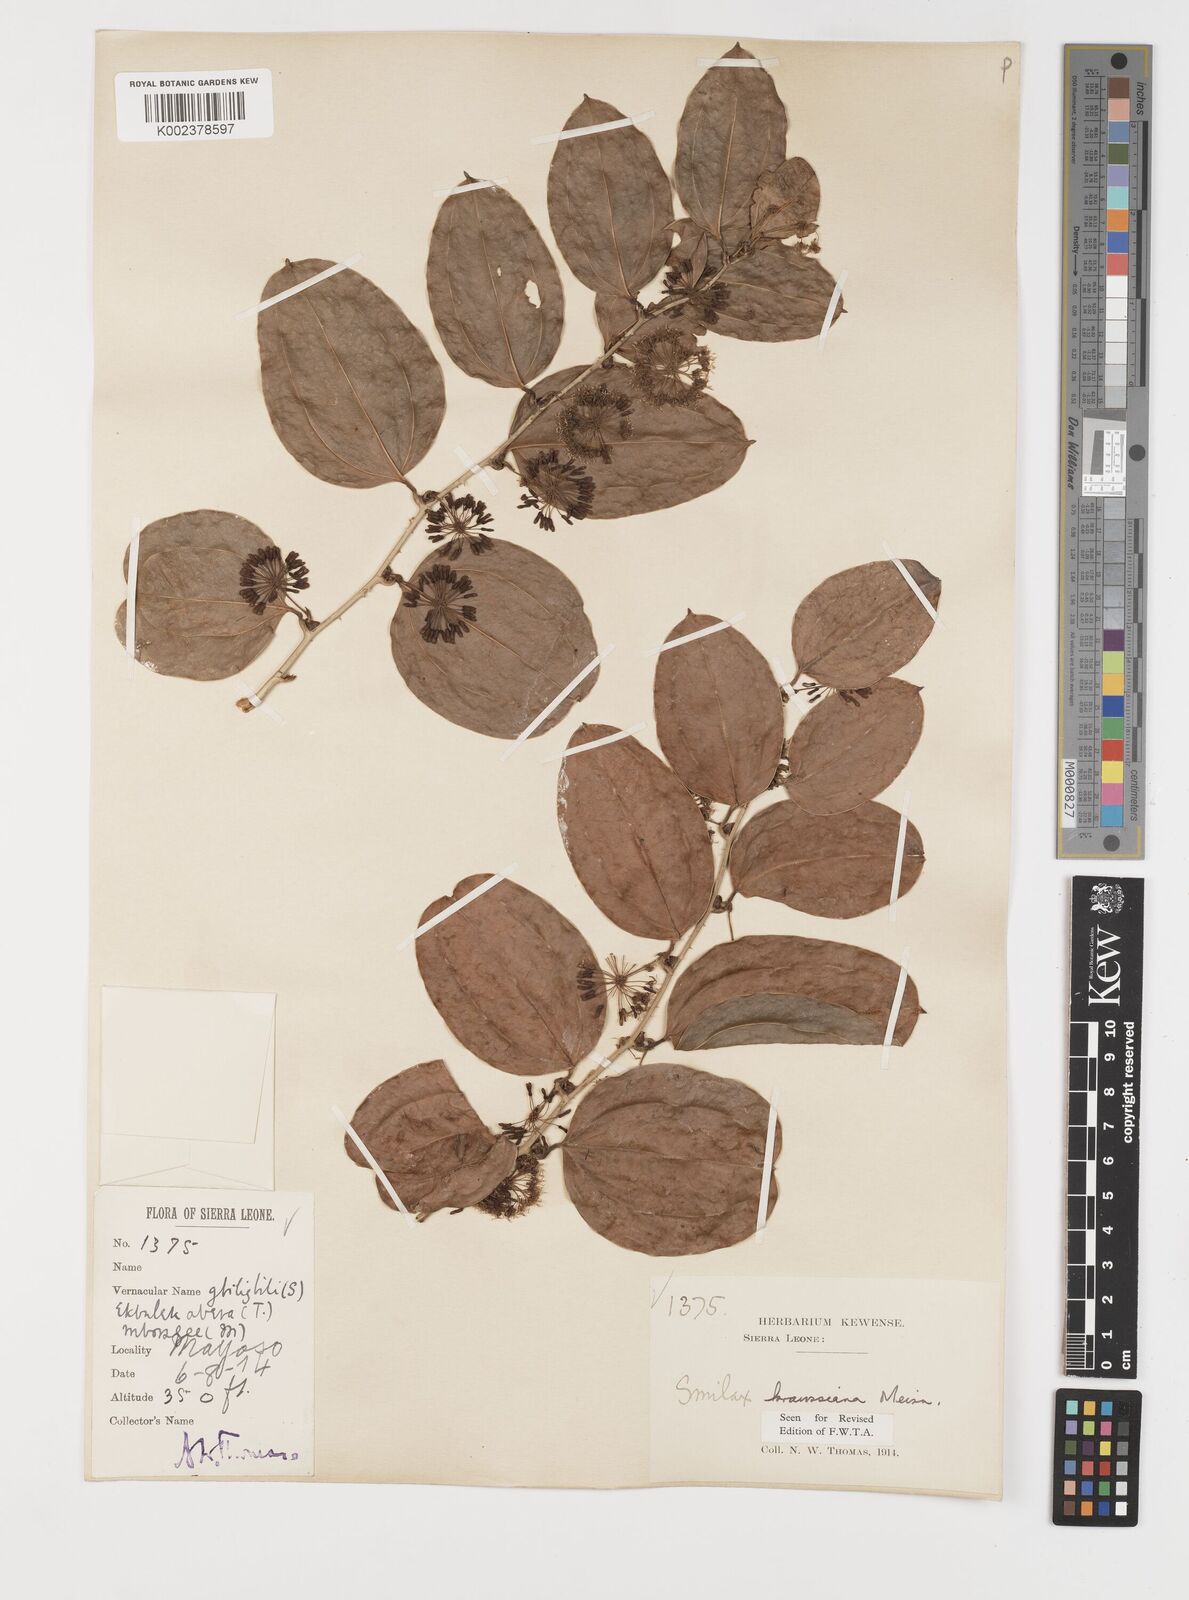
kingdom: Plantae
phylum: Tracheophyta
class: Liliopsida
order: Liliales
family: Smilacaceae
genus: Smilax
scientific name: Smilax anceps
